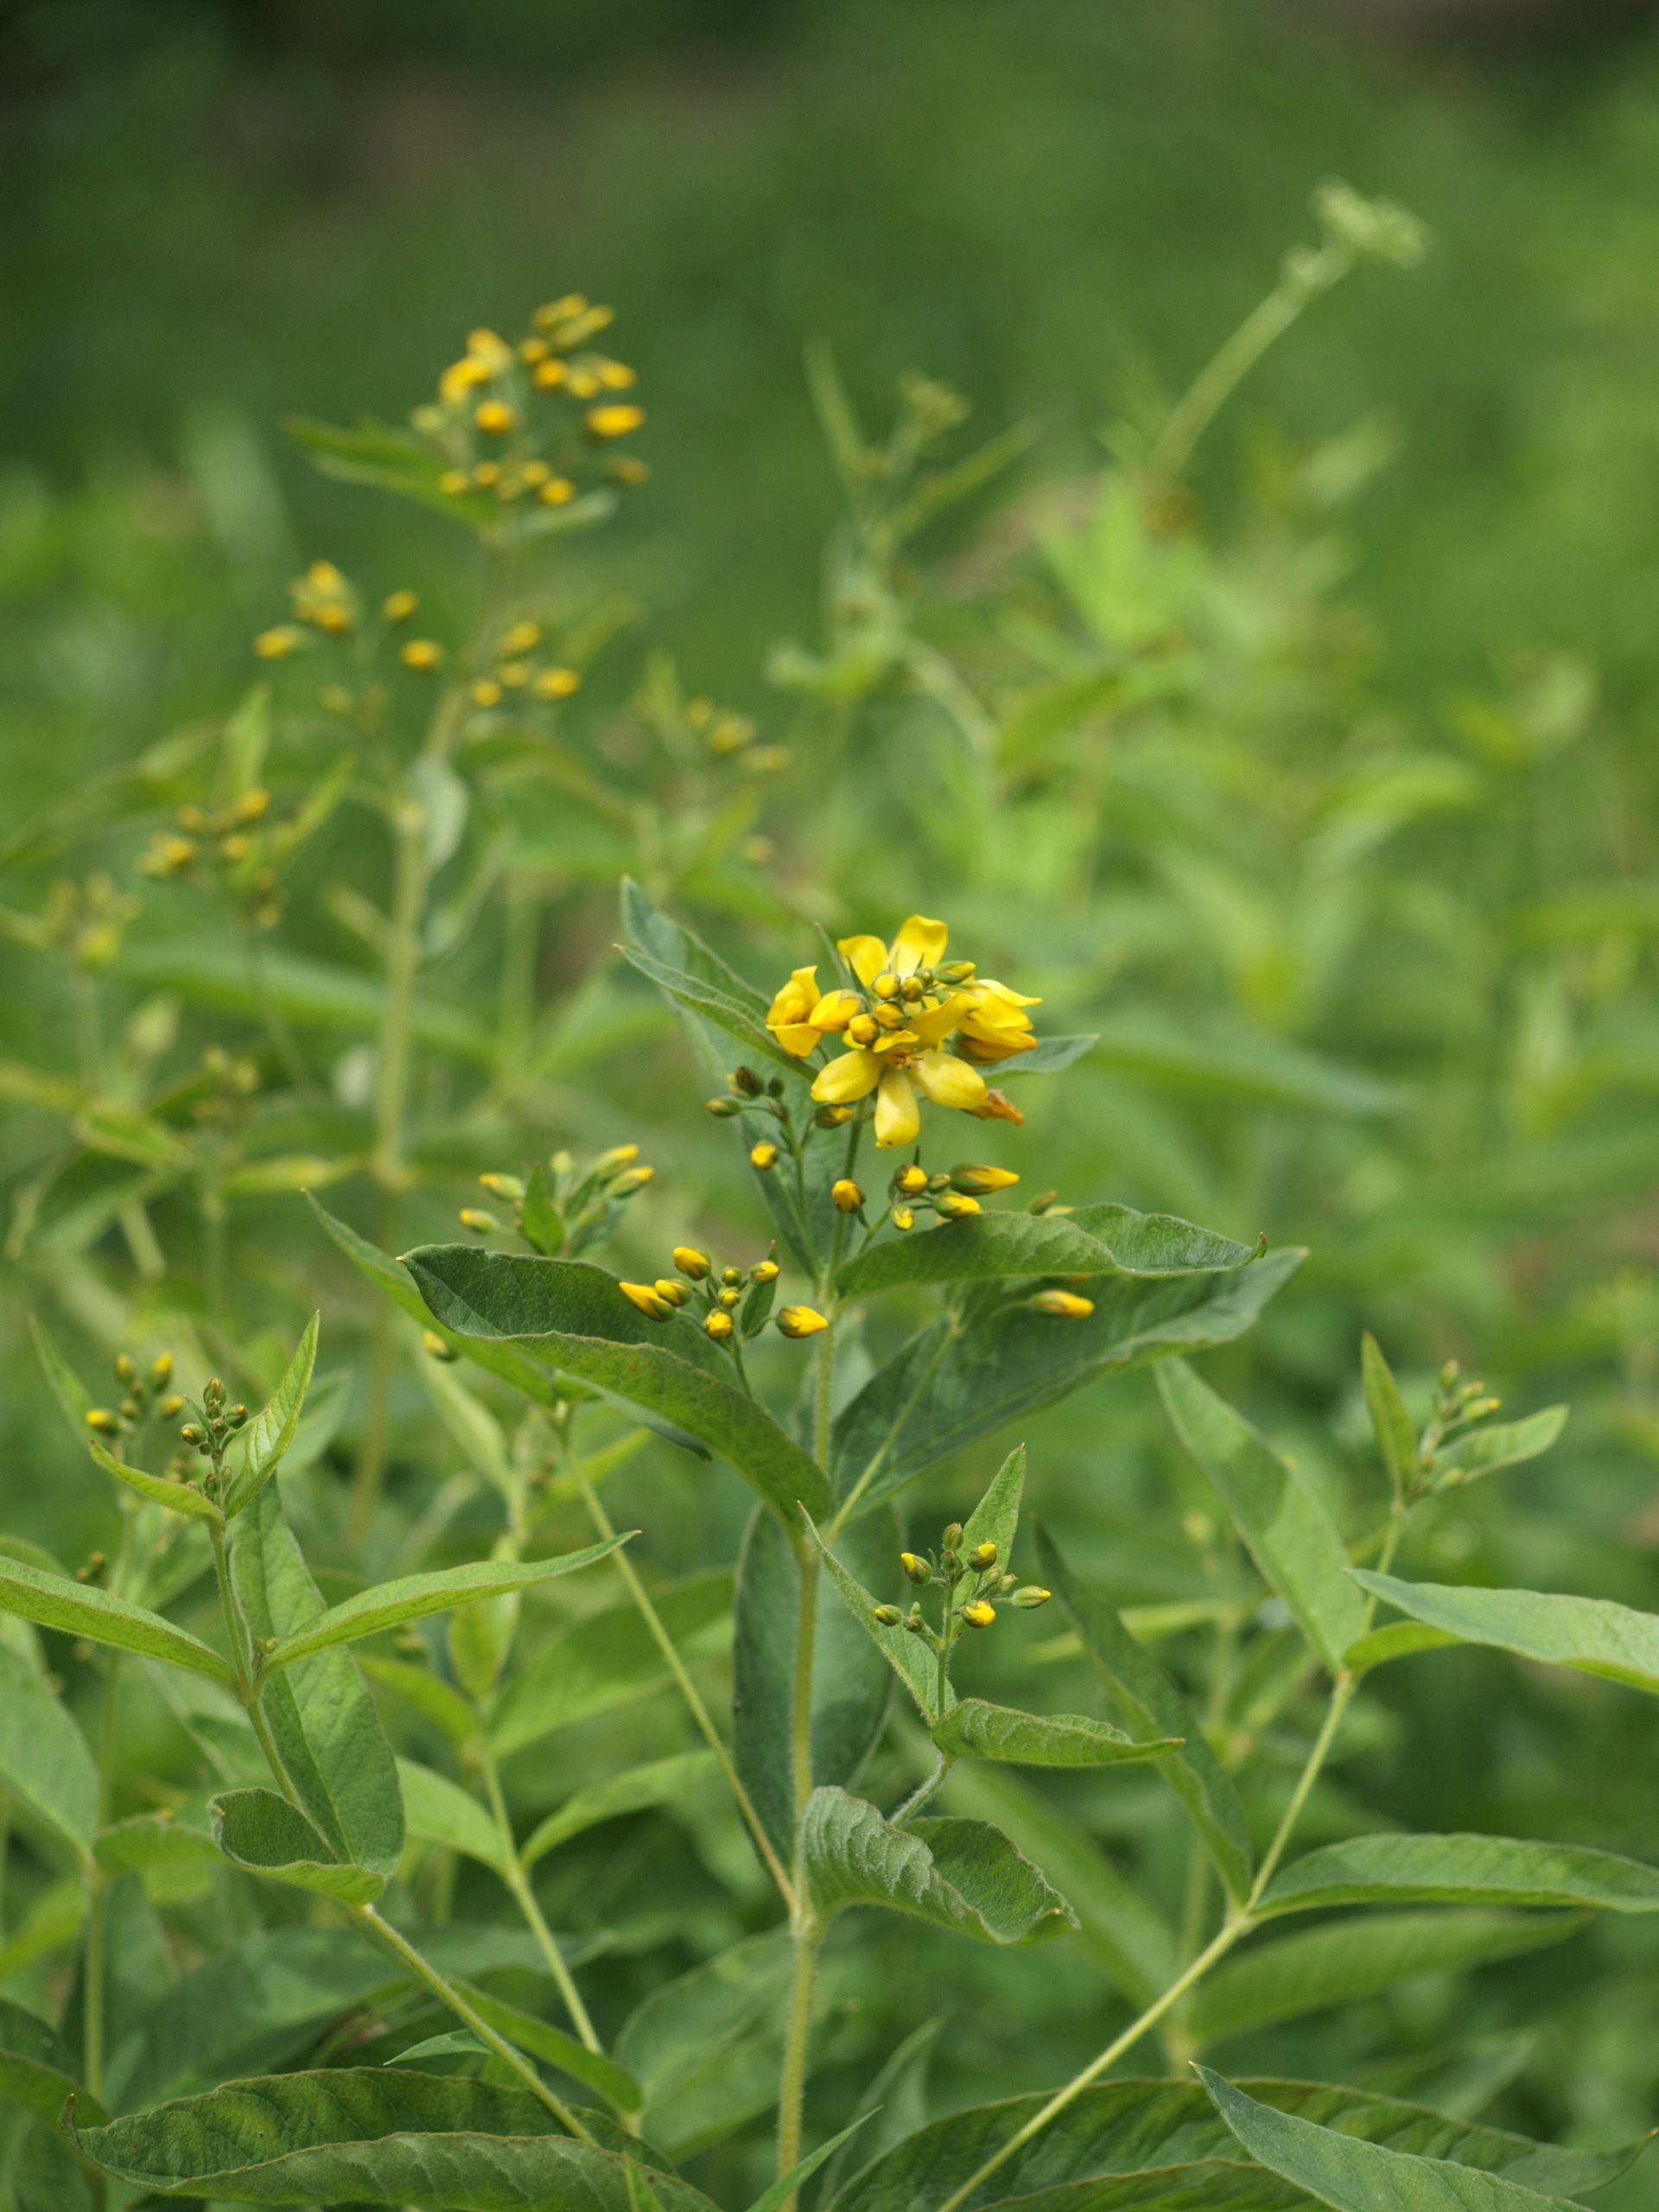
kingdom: Plantae
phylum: Tracheophyta
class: Magnoliopsida
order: Ericales
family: Primulaceae
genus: Lysimachia
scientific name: Lysimachia vulgaris
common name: Almindelig fredløs
